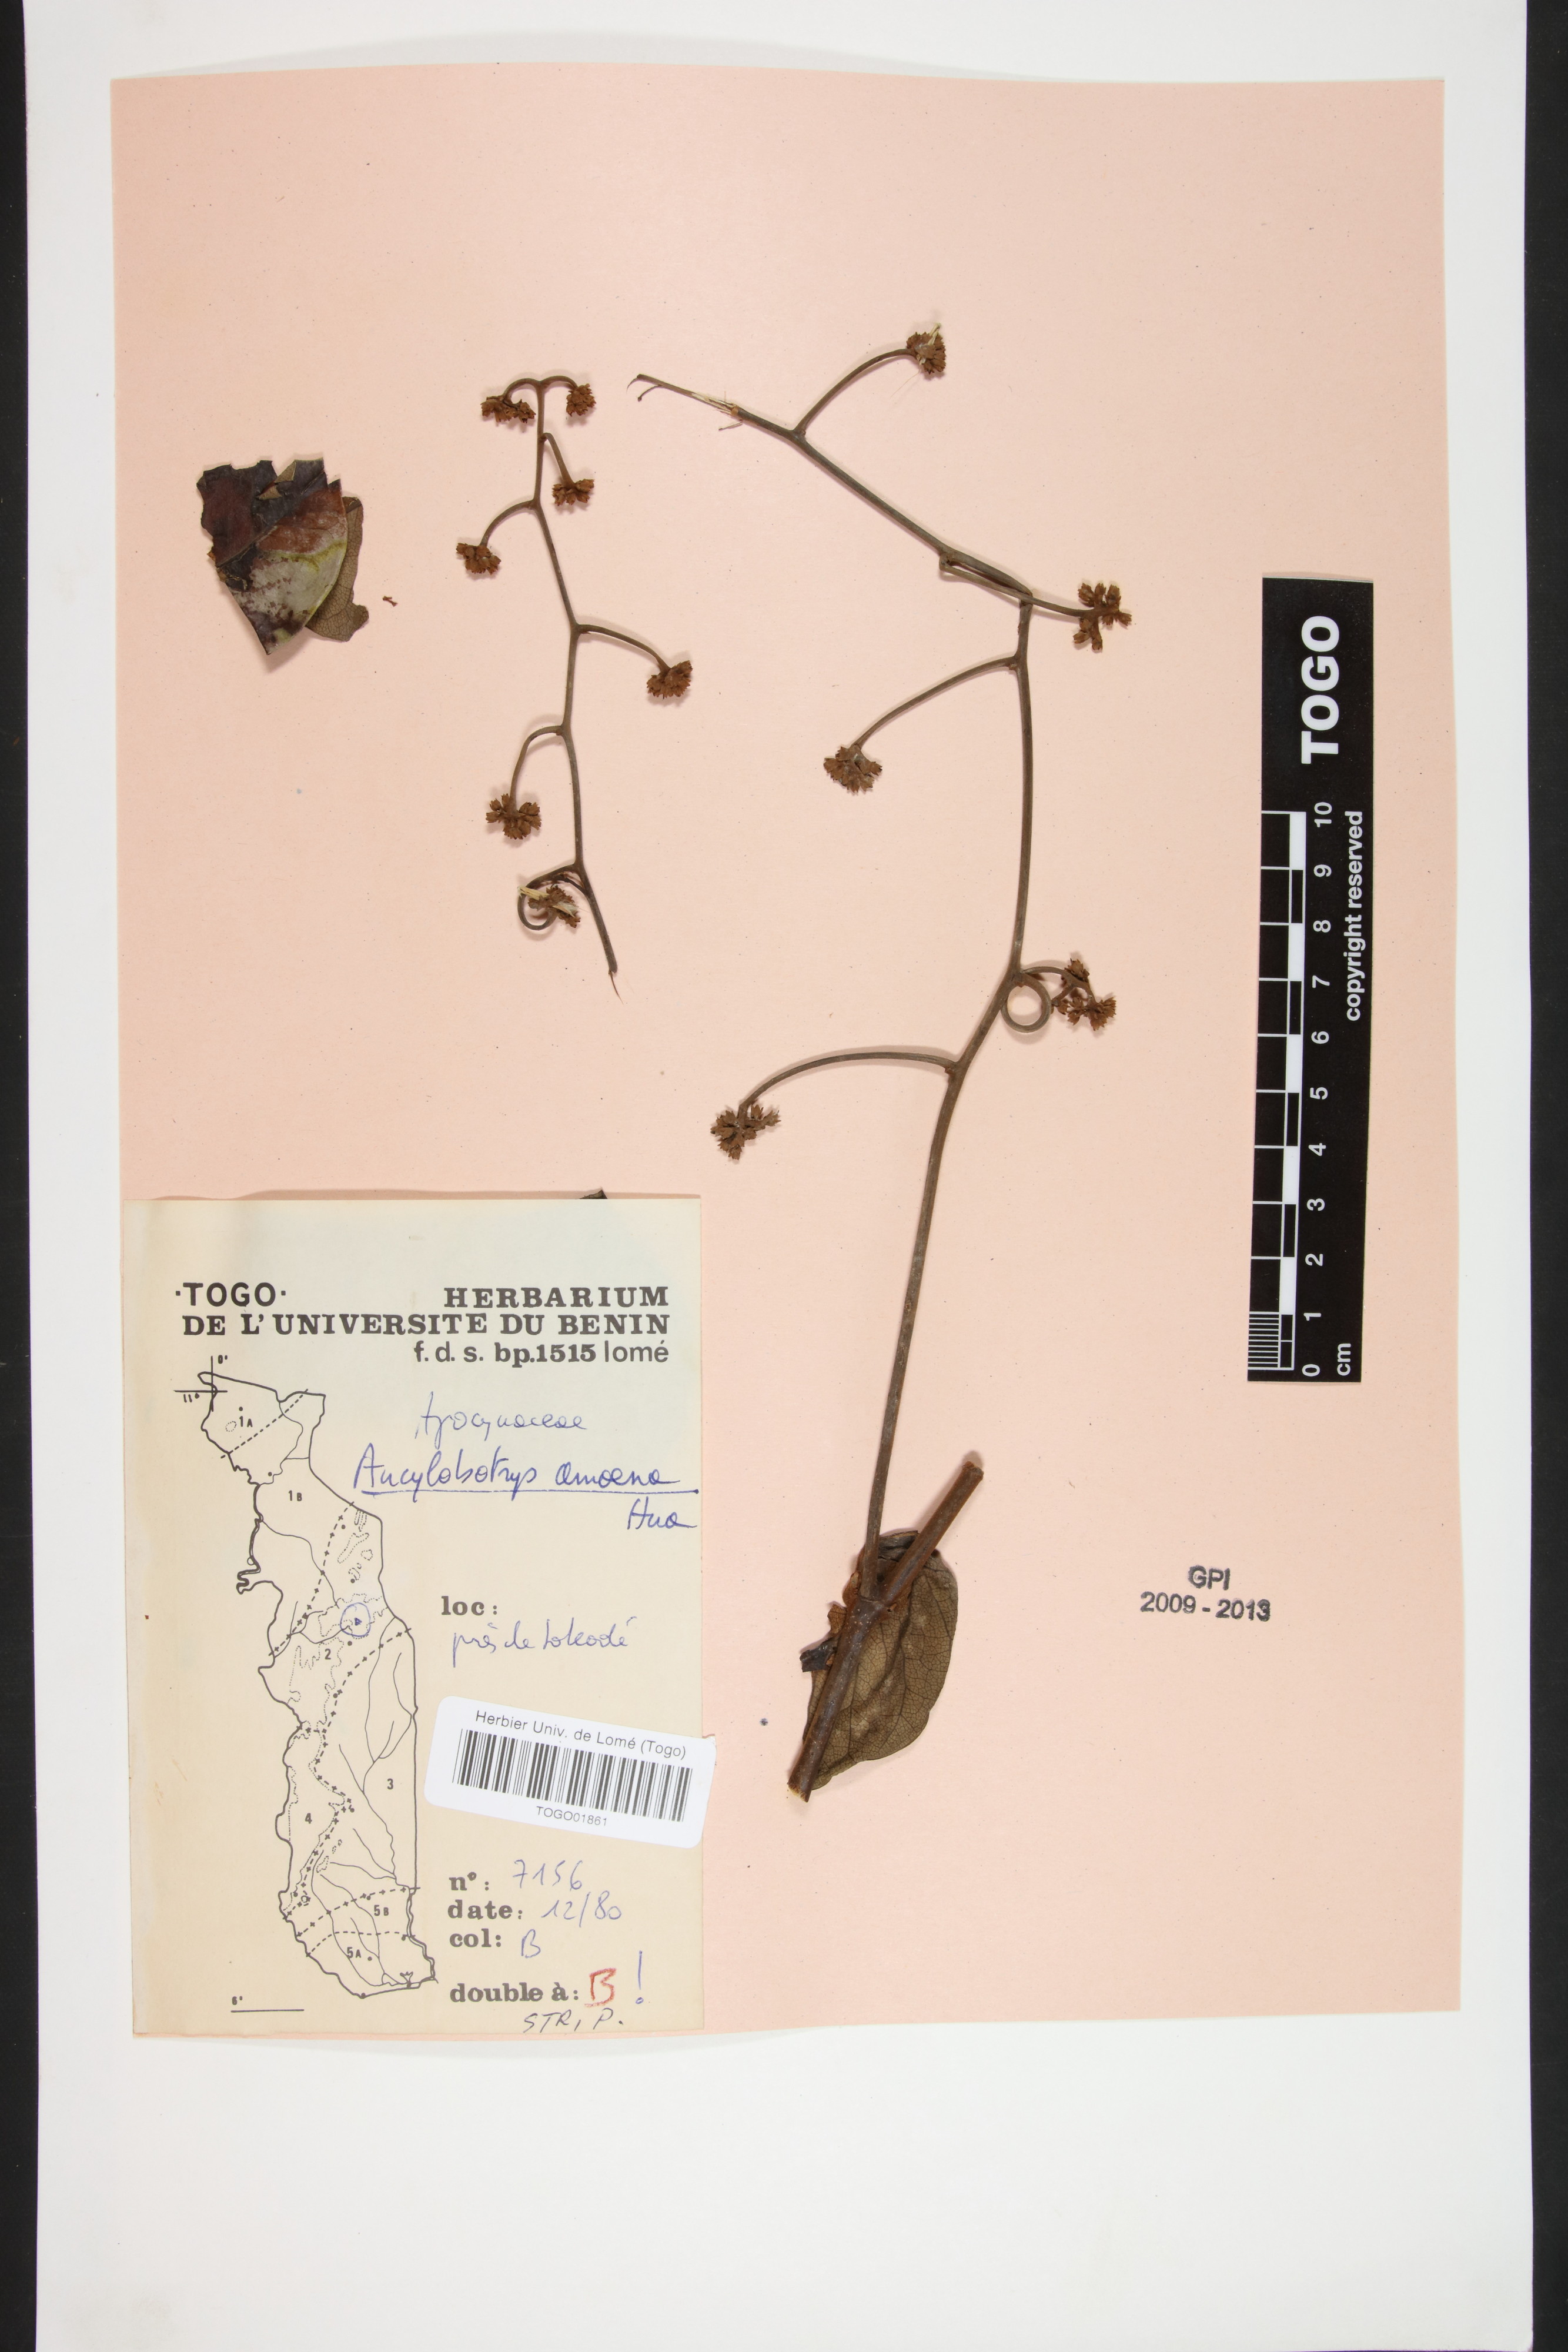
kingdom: Plantae
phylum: Tracheophyta
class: Magnoliopsida
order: Gentianales
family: Apocynaceae
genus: Ancylobothrys
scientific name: Ancylobothrys amoena
